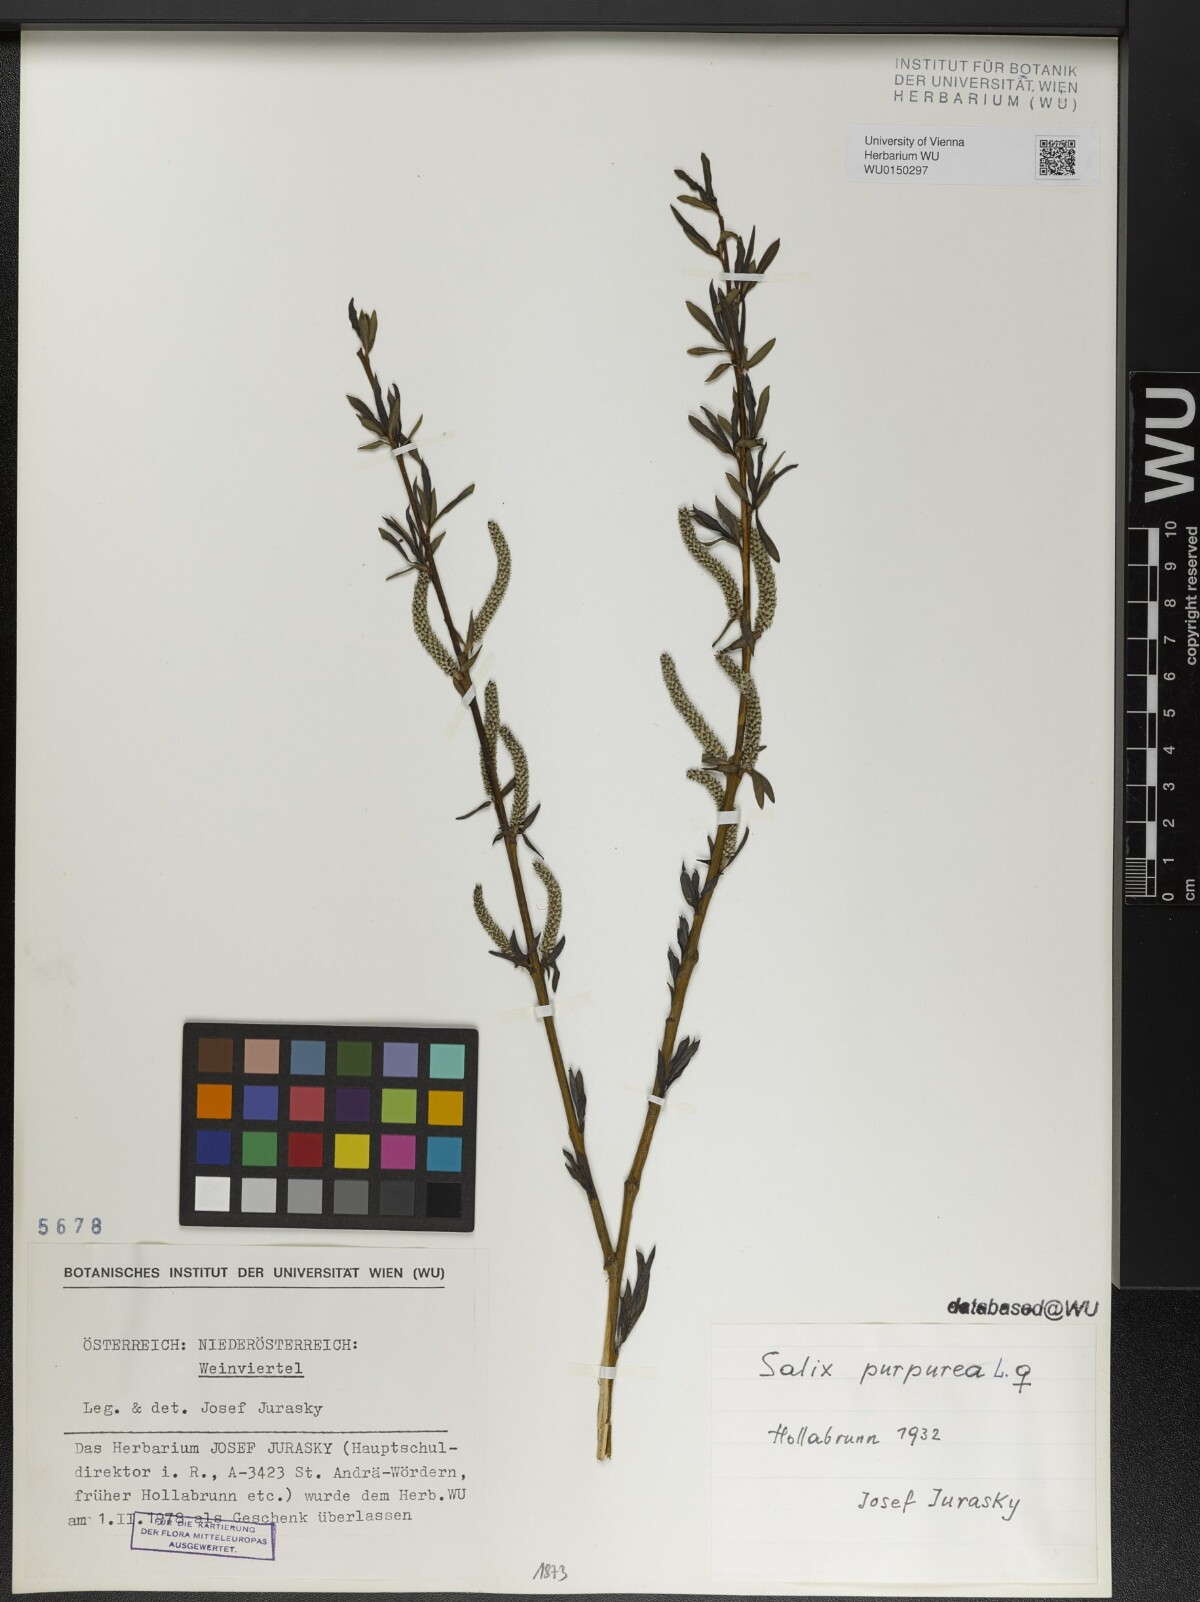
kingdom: Plantae
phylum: Tracheophyta
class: Magnoliopsida
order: Malpighiales
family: Salicaceae
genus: Salix
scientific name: Salix purpurea
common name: Purple willow
